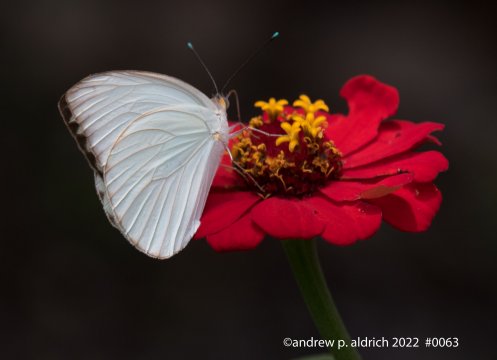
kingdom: Animalia
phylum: Arthropoda
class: Insecta
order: Lepidoptera
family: Pieridae
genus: Ascia
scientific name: Ascia monuste
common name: Great Southern White
